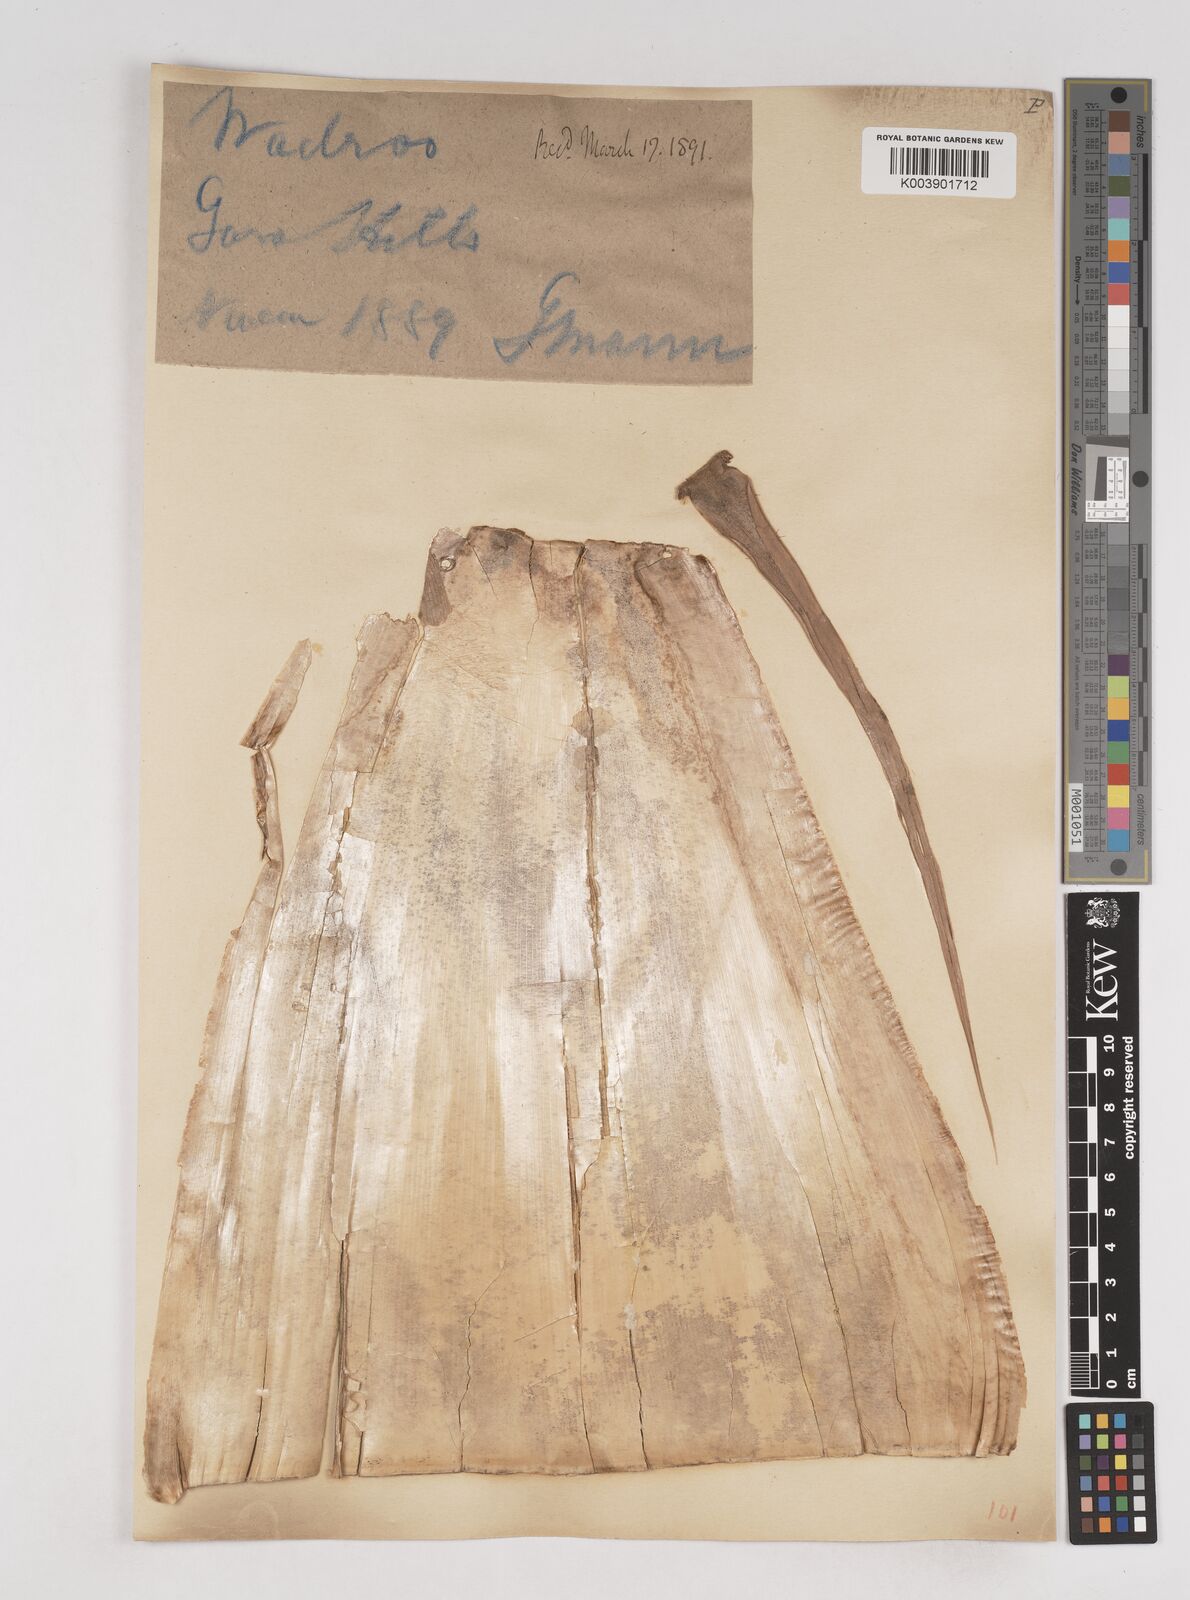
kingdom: Plantae
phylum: Tracheophyta
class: Liliopsida
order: Poales
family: Poaceae
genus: Schizostachyum
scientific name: Schizostachyum dullooa
